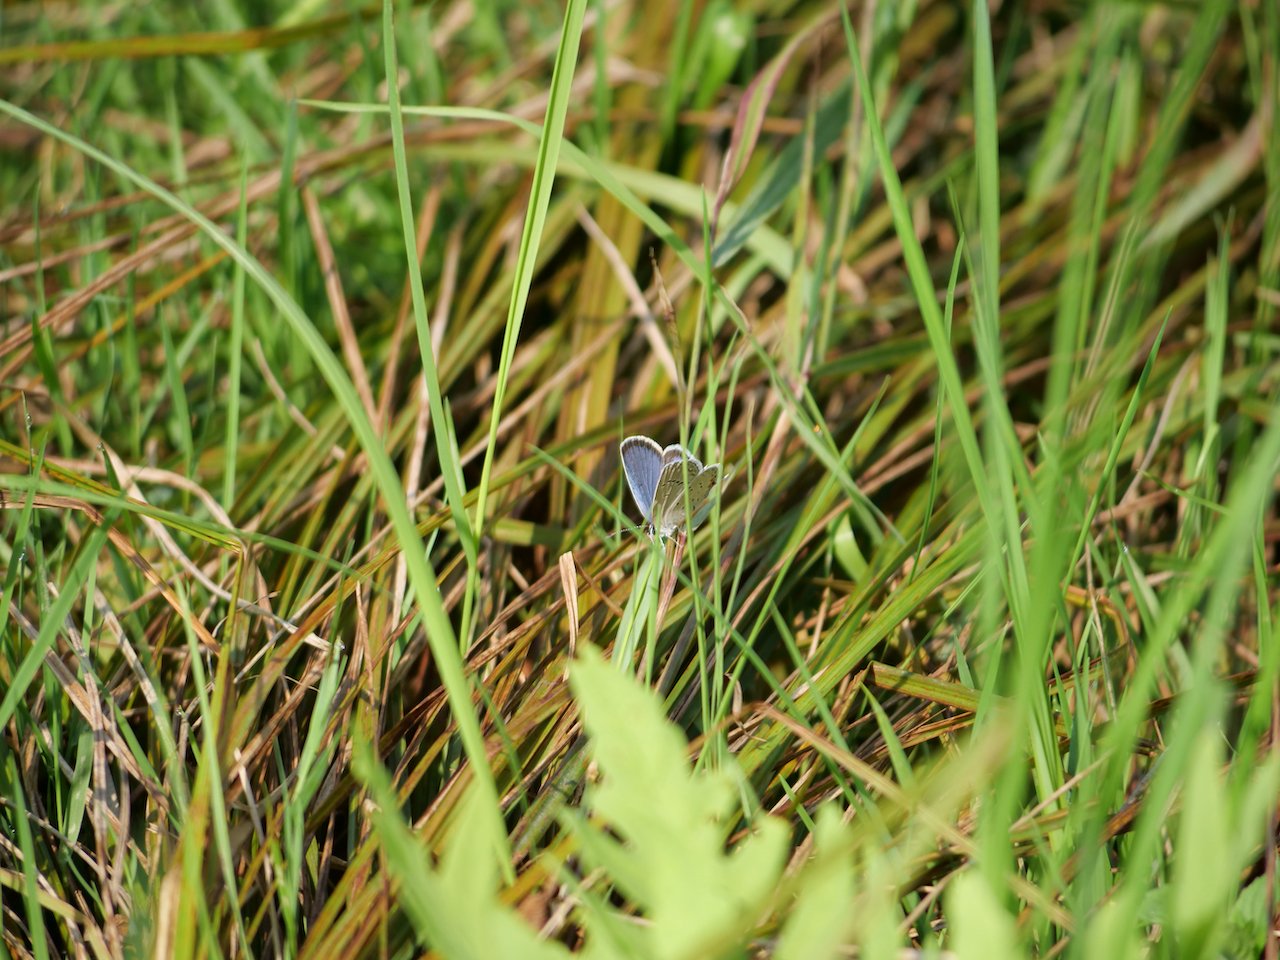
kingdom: Animalia
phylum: Arthropoda
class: Insecta
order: Lepidoptera
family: Lycaenidae
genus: Elkalyce
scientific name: Elkalyce comyntas
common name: Eastern Tailed-Blue
